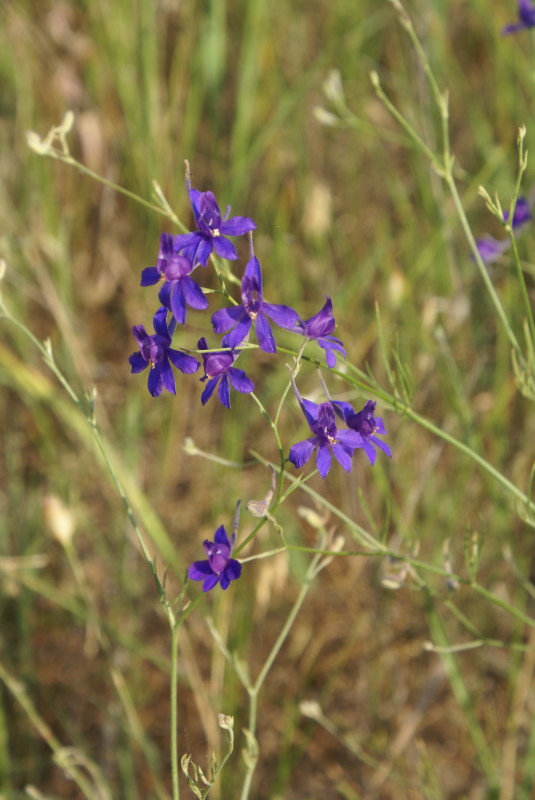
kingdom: Plantae
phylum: Tracheophyta
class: Magnoliopsida
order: Ranunculales
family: Ranunculaceae
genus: Delphinium
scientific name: Delphinium consolida
